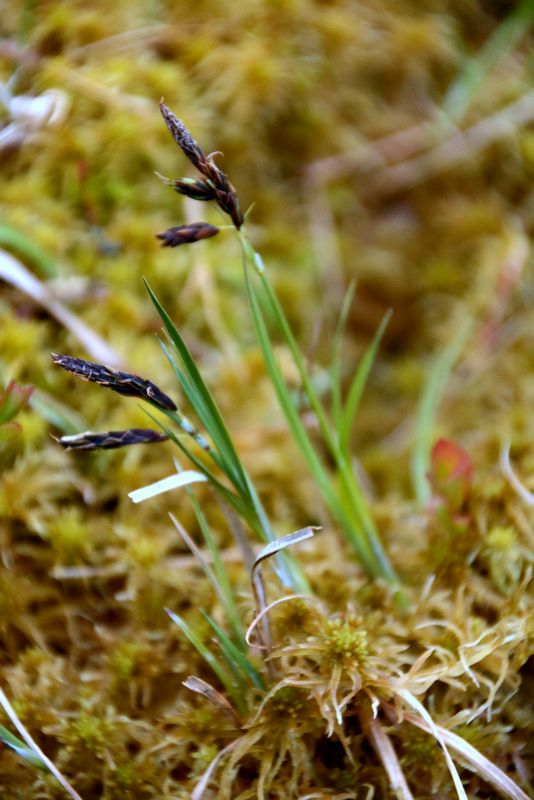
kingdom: Plantae
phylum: Tracheophyta
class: Liliopsida
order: Poales
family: Cyperaceae
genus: Carex
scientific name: Carex rariflora
